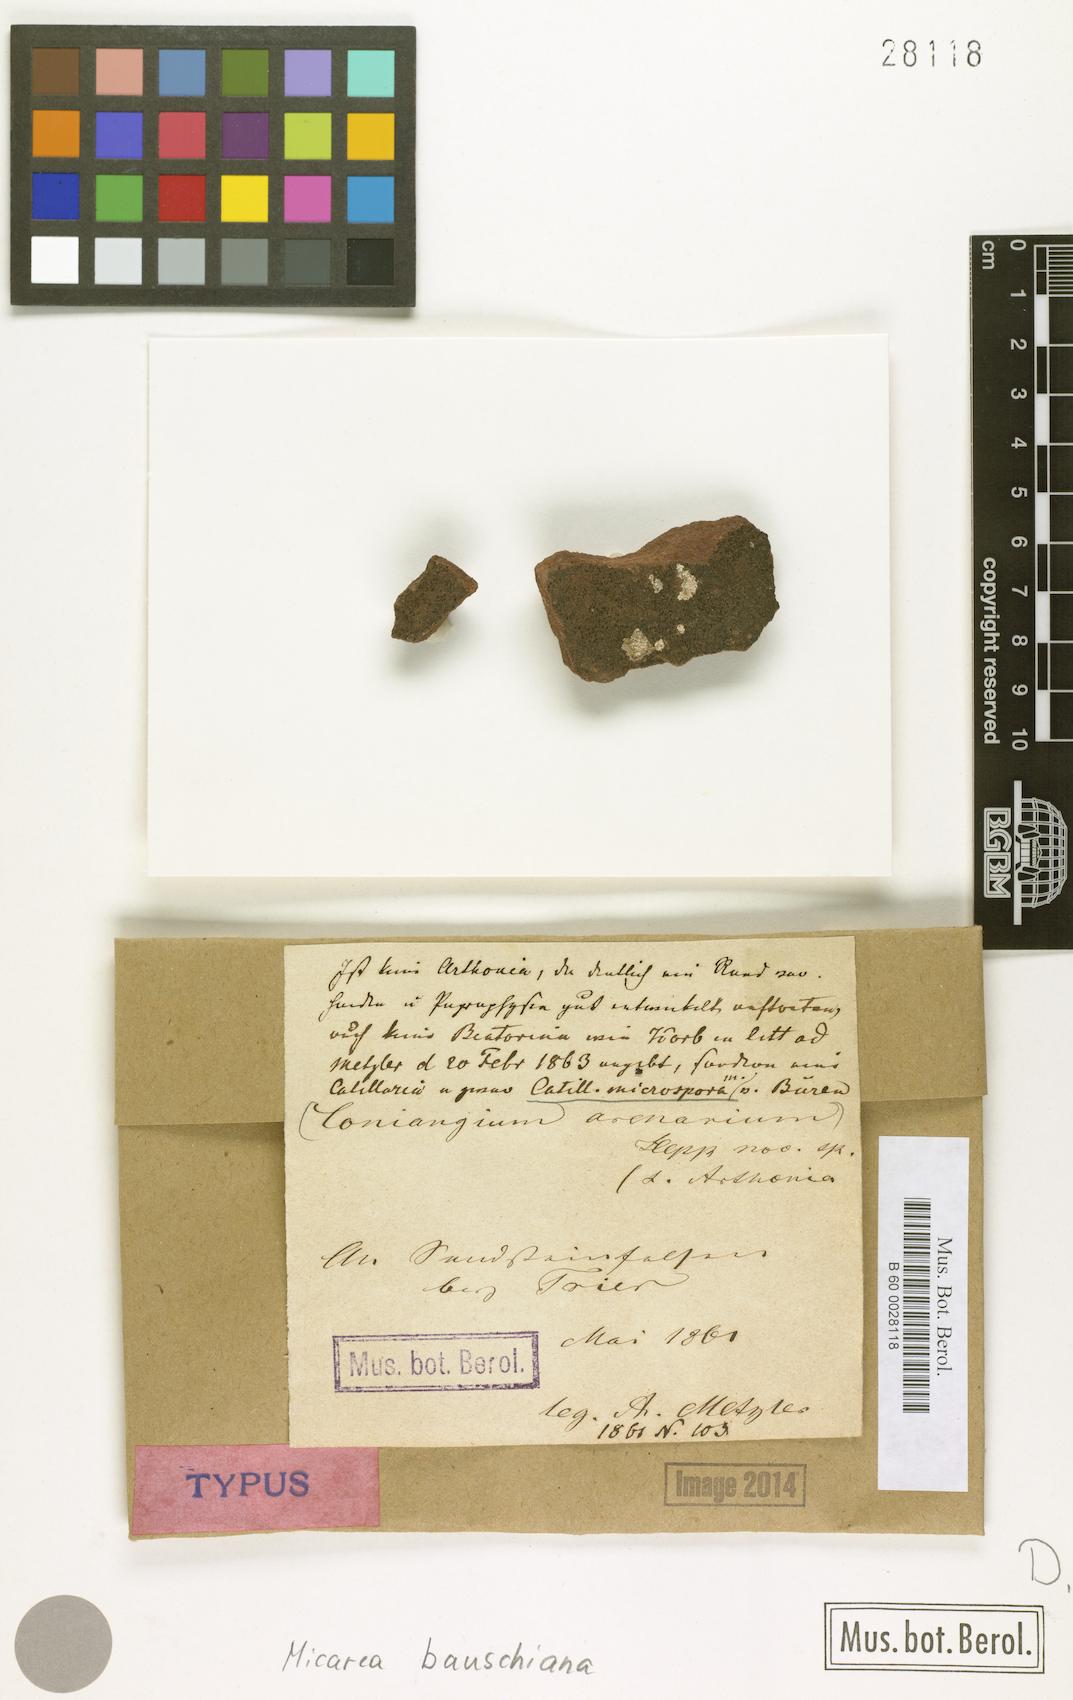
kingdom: Fungi
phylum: Ascomycota
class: Lecanoromycetes
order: Lecanorales
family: Psoraceae
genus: Brianaria
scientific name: Brianaria bauschiana
